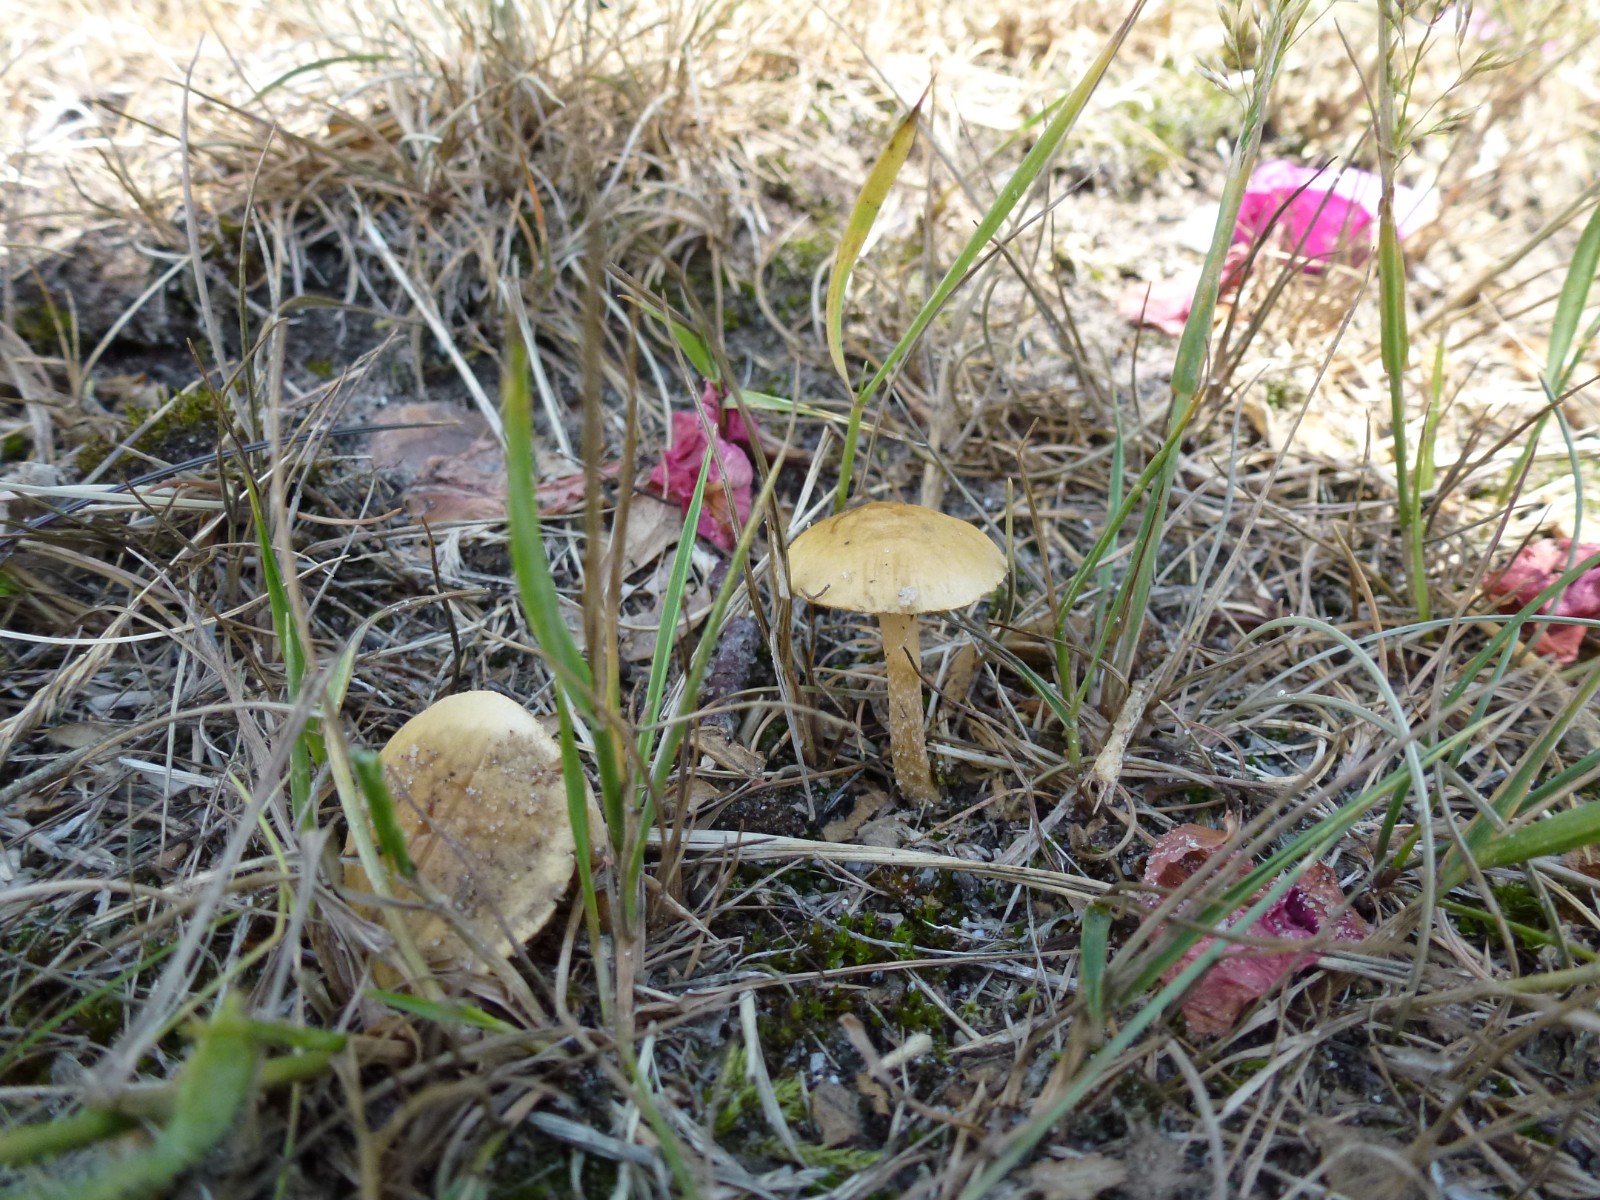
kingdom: Fungi
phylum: Basidiomycota
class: Agaricomycetes
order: Agaricales
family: Strophariaceae
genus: Agrocybe
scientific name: Agrocybe pediades
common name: almindelig agerhat
